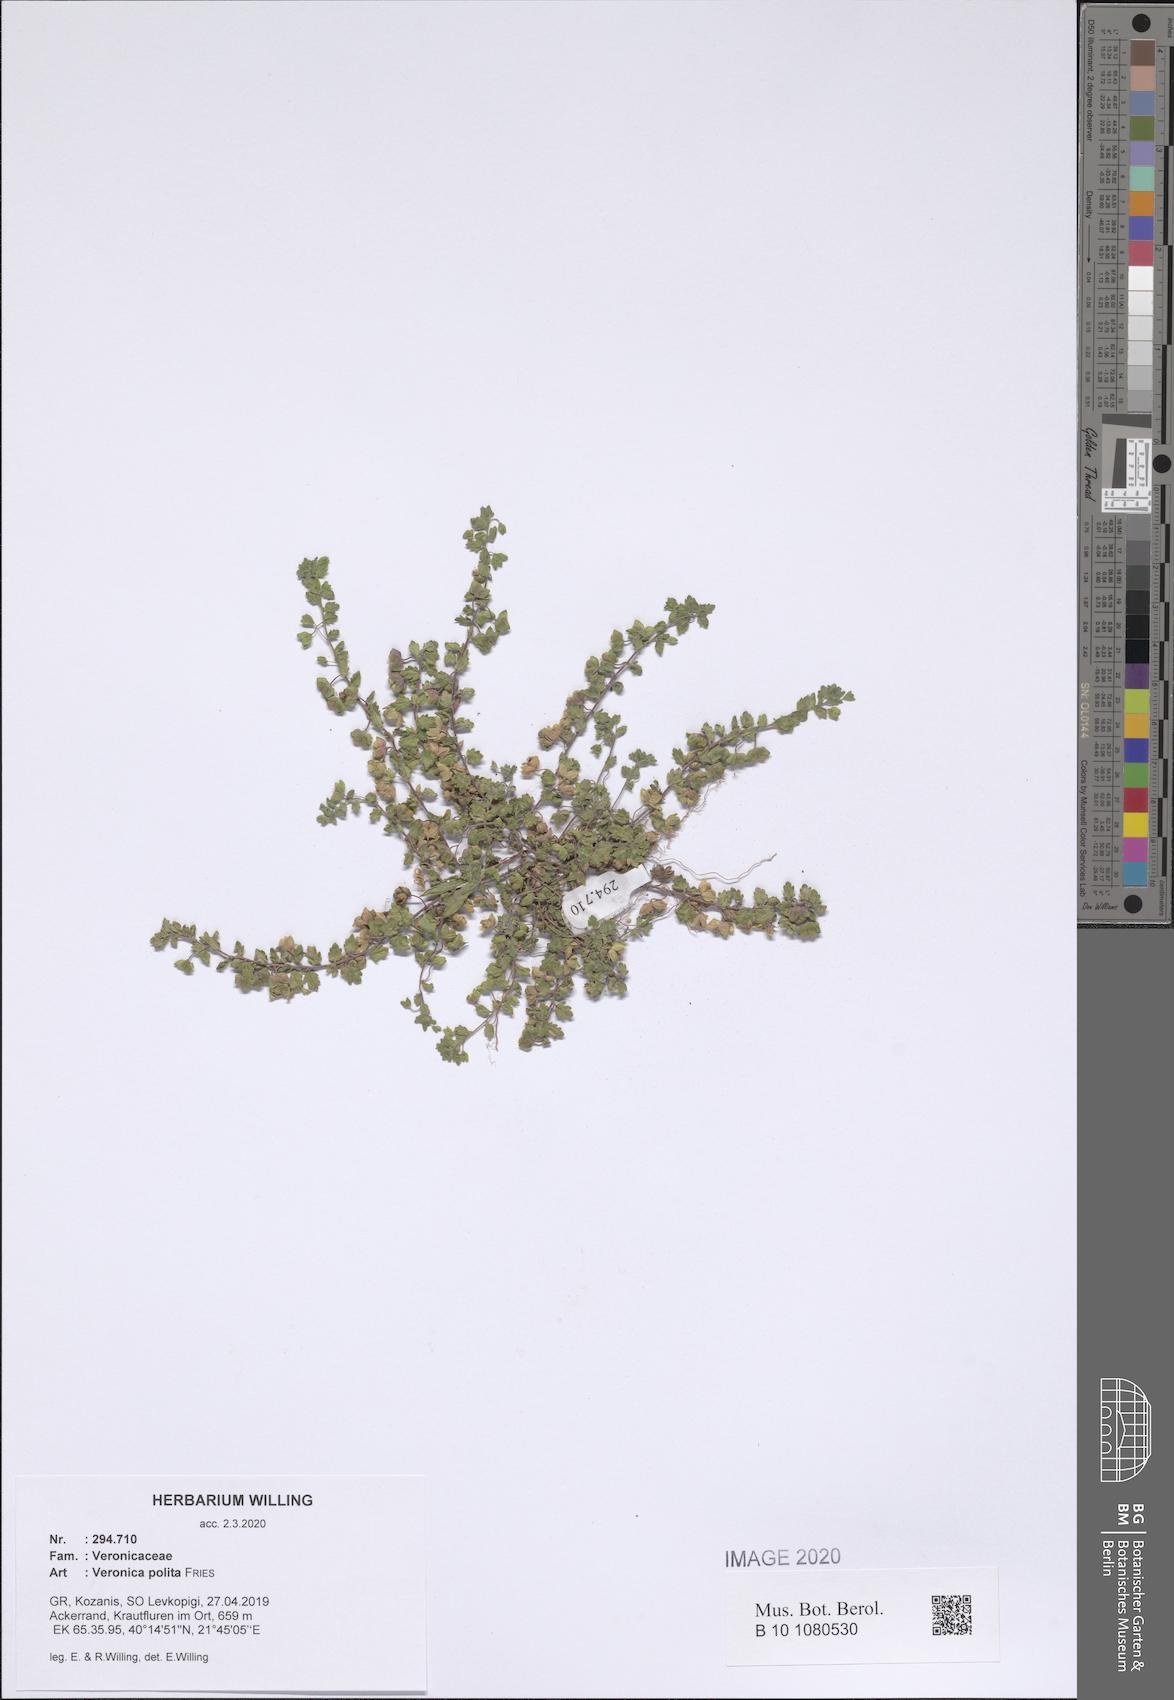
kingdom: Plantae
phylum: Tracheophyta
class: Magnoliopsida
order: Lamiales
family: Plantaginaceae
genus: Veronica
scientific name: Veronica polita
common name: Grey field-speedwell
